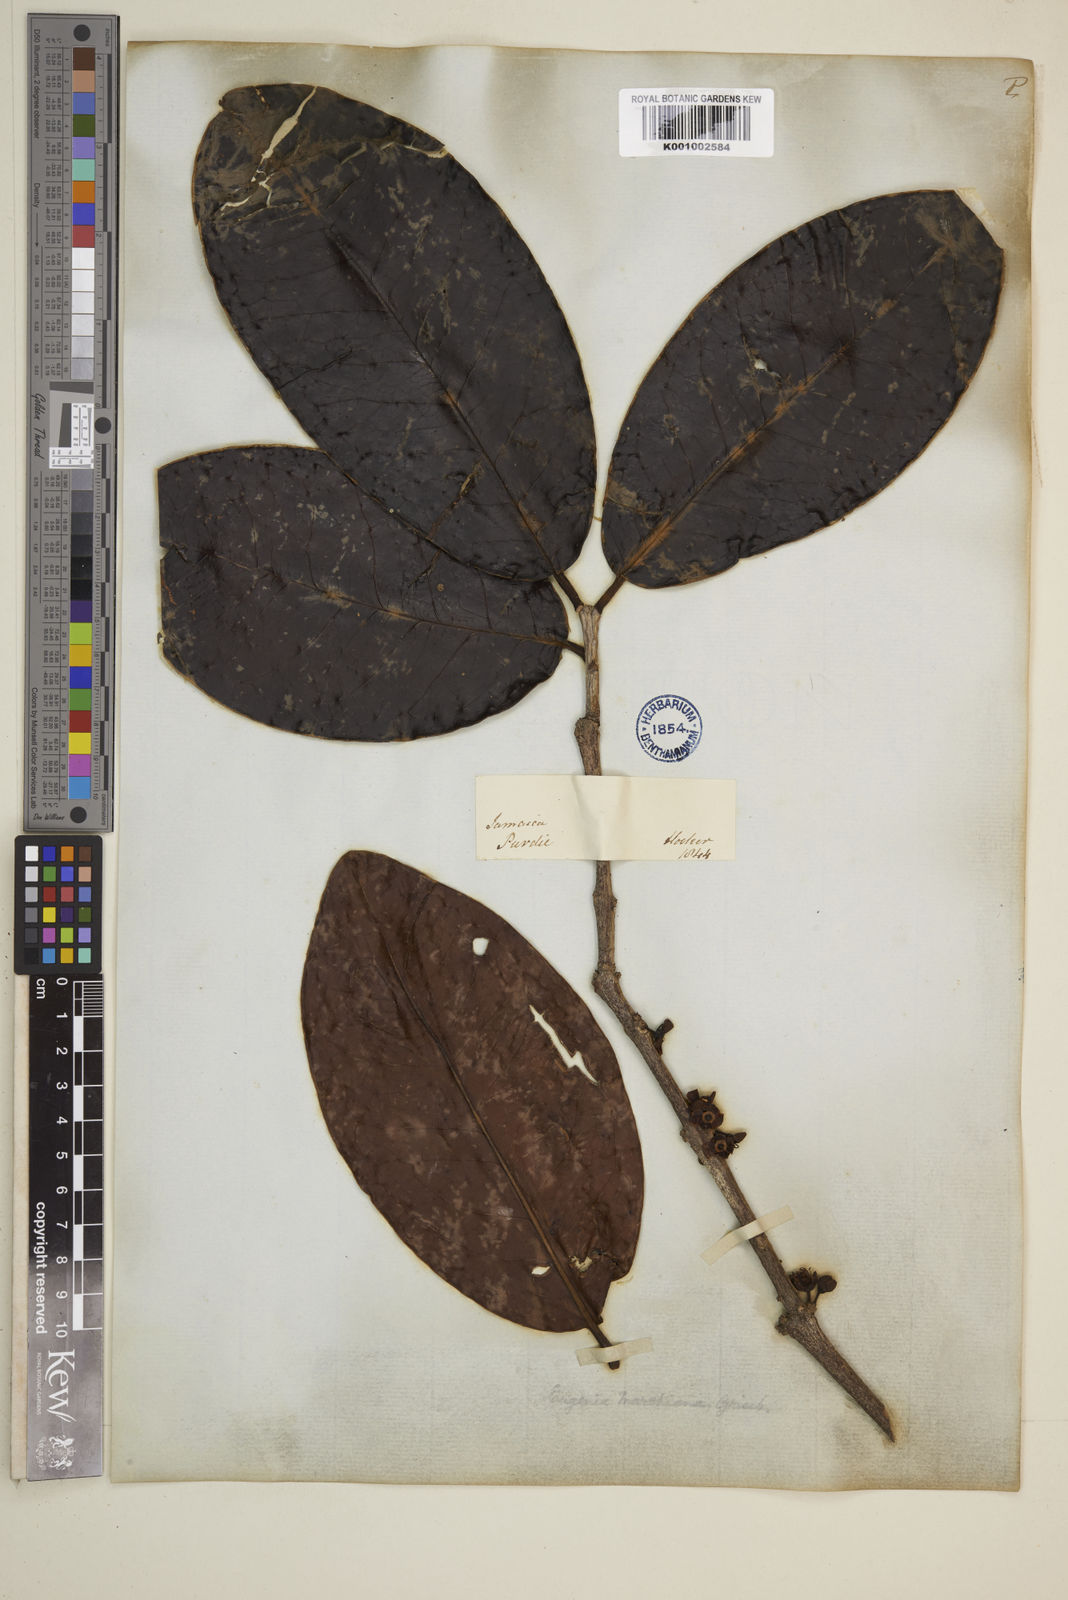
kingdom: Plantae
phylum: Tracheophyta
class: Magnoliopsida
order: Myrtales
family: Myrtaceae
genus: Eugenia
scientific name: Eugenia marshiana
